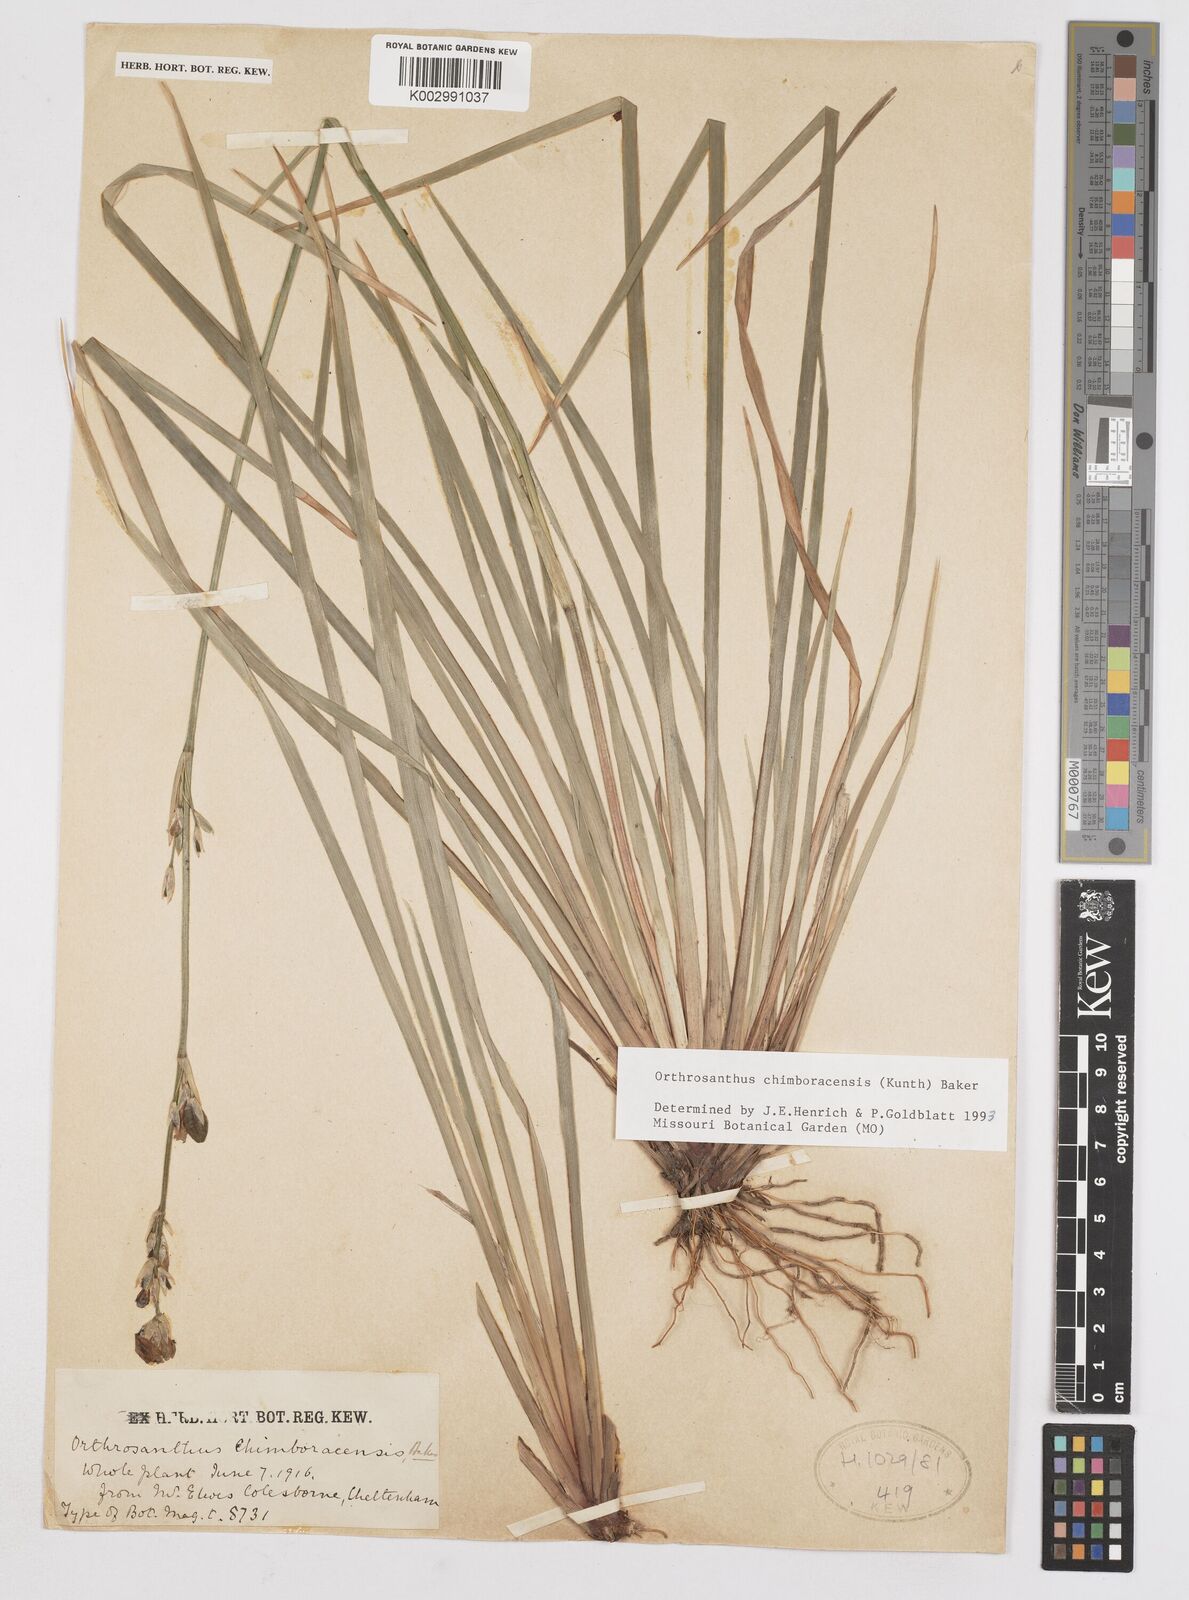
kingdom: Plantae
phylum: Tracheophyta
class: Liliopsida
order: Asparagales
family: Iridaceae
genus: Orthrosanthus
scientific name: Orthrosanthus chimboracensis
